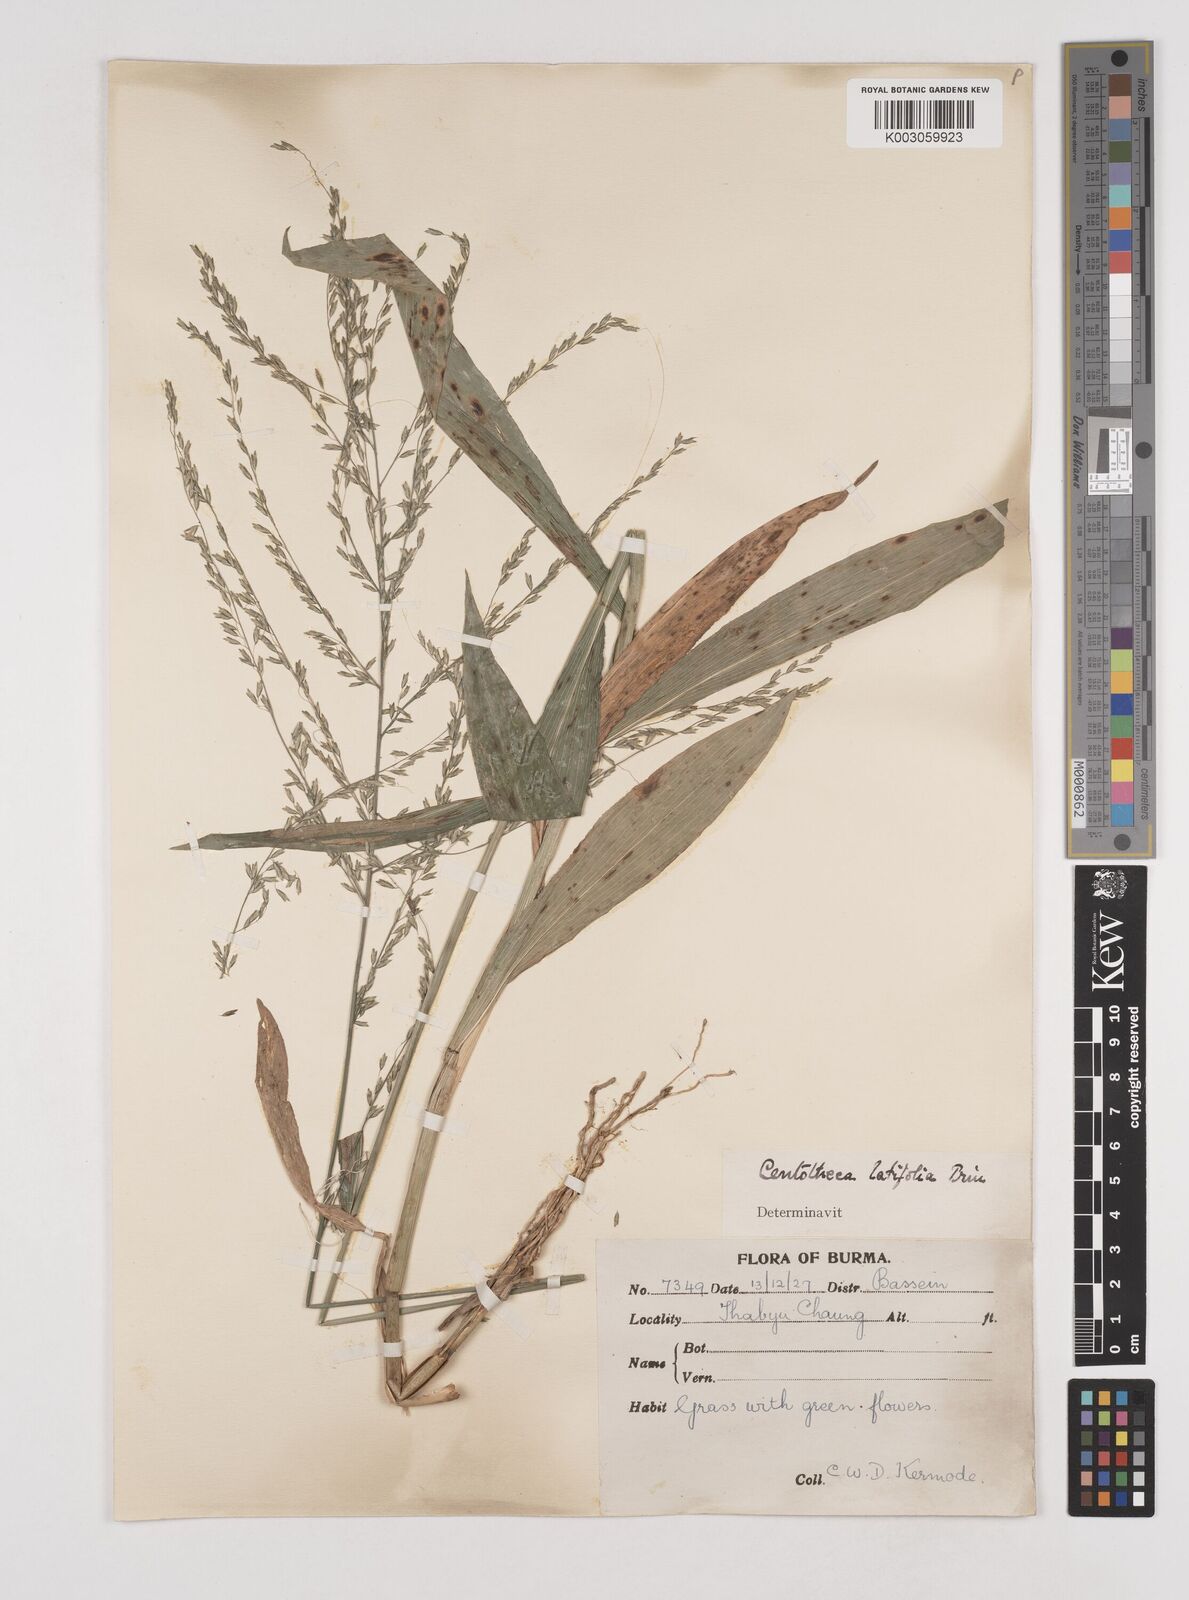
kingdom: Plantae
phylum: Tracheophyta
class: Liliopsida
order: Poales
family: Poaceae
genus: Centotheca
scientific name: Centotheca lappacea
